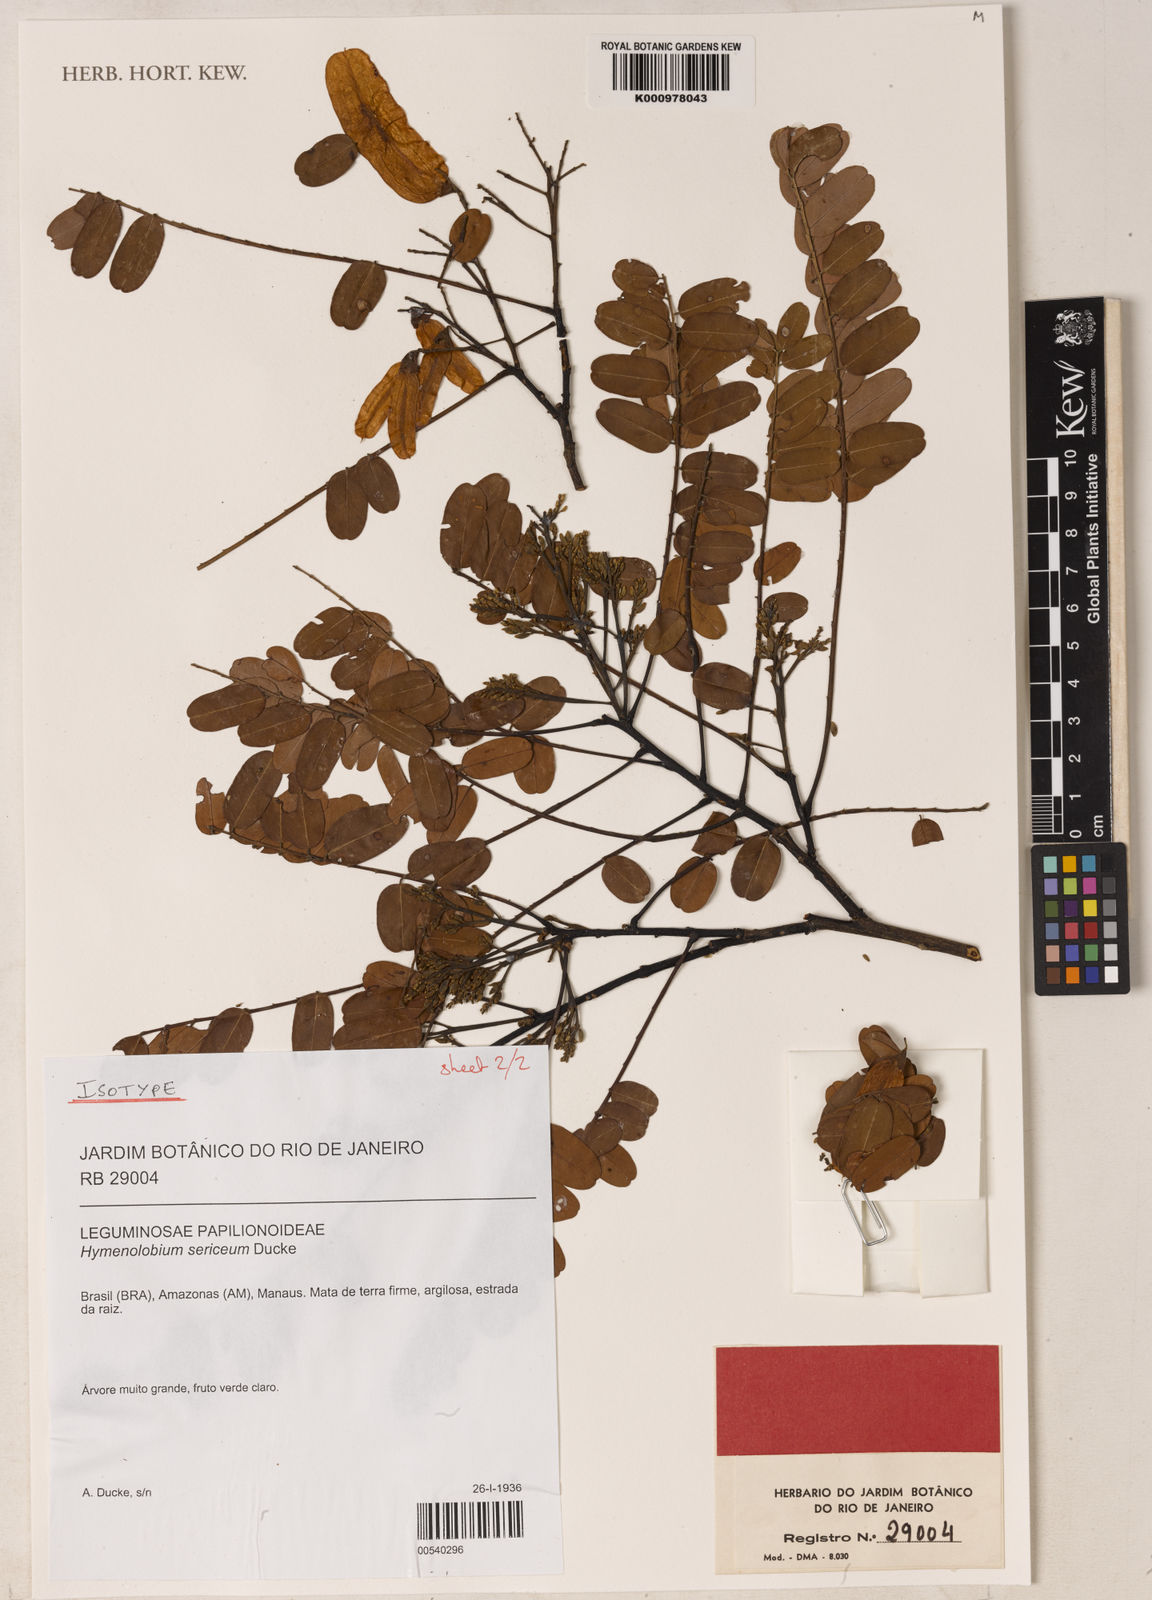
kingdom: Plantae
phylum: Tracheophyta
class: Magnoliopsida
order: Fabales
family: Fabaceae
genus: Hymenolobium
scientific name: Hymenolobium sericeum
